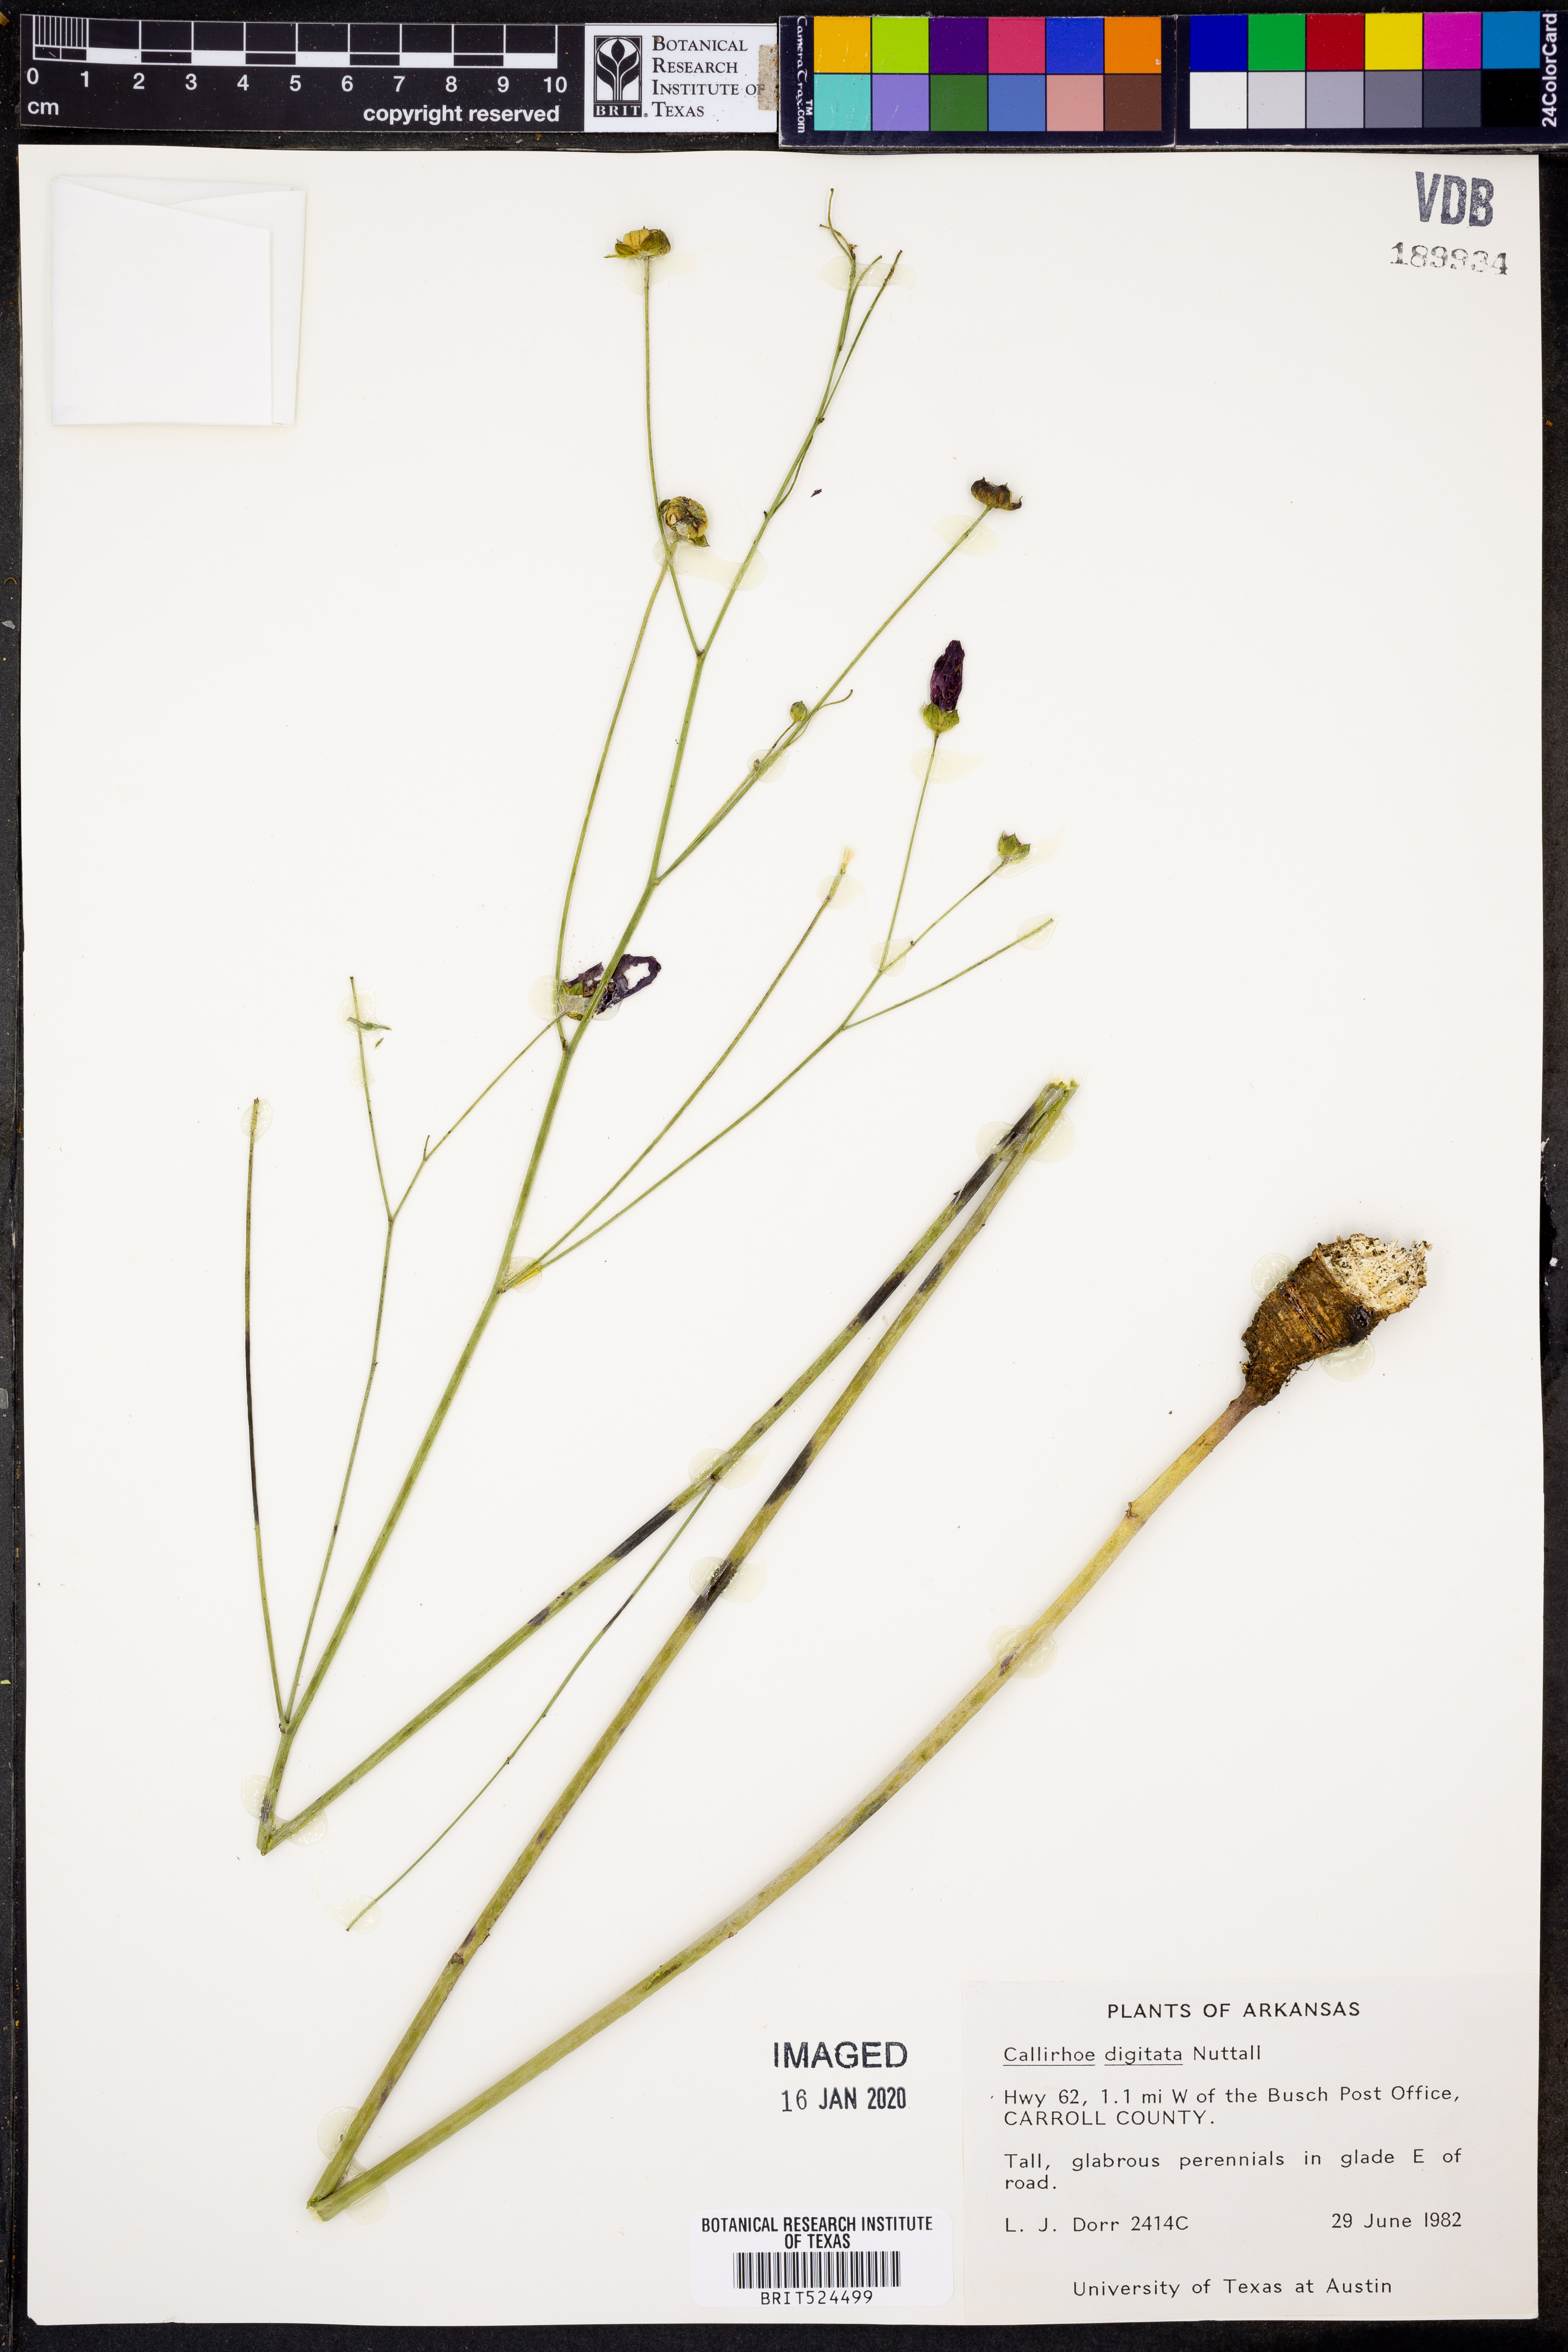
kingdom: Plantae
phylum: Tracheophyta
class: Magnoliopsida
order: Malvales
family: Malvaceae
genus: Callirhoe
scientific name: Callirhoe digitata
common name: Finger poppy-mallow
